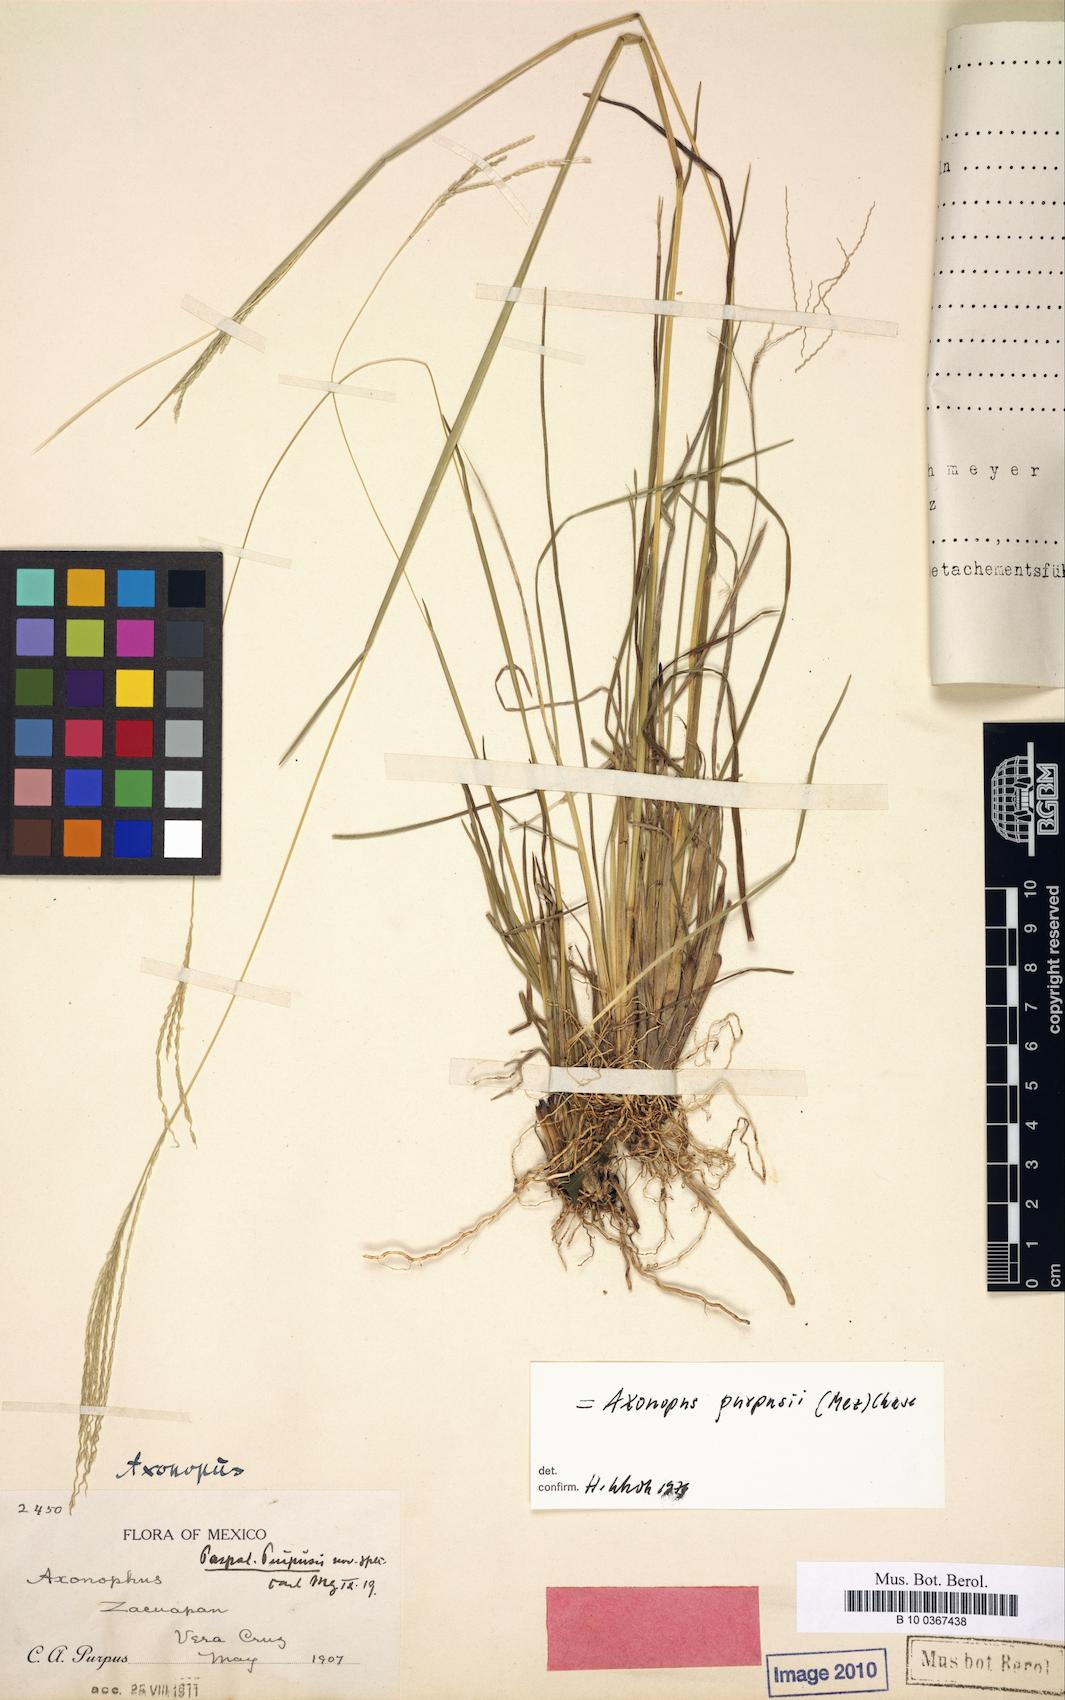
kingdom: Plantae
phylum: Tracheophyta
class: Liliopsida
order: Poales
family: Poaceae
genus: Axonopus
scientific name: Axonopus purpusii
